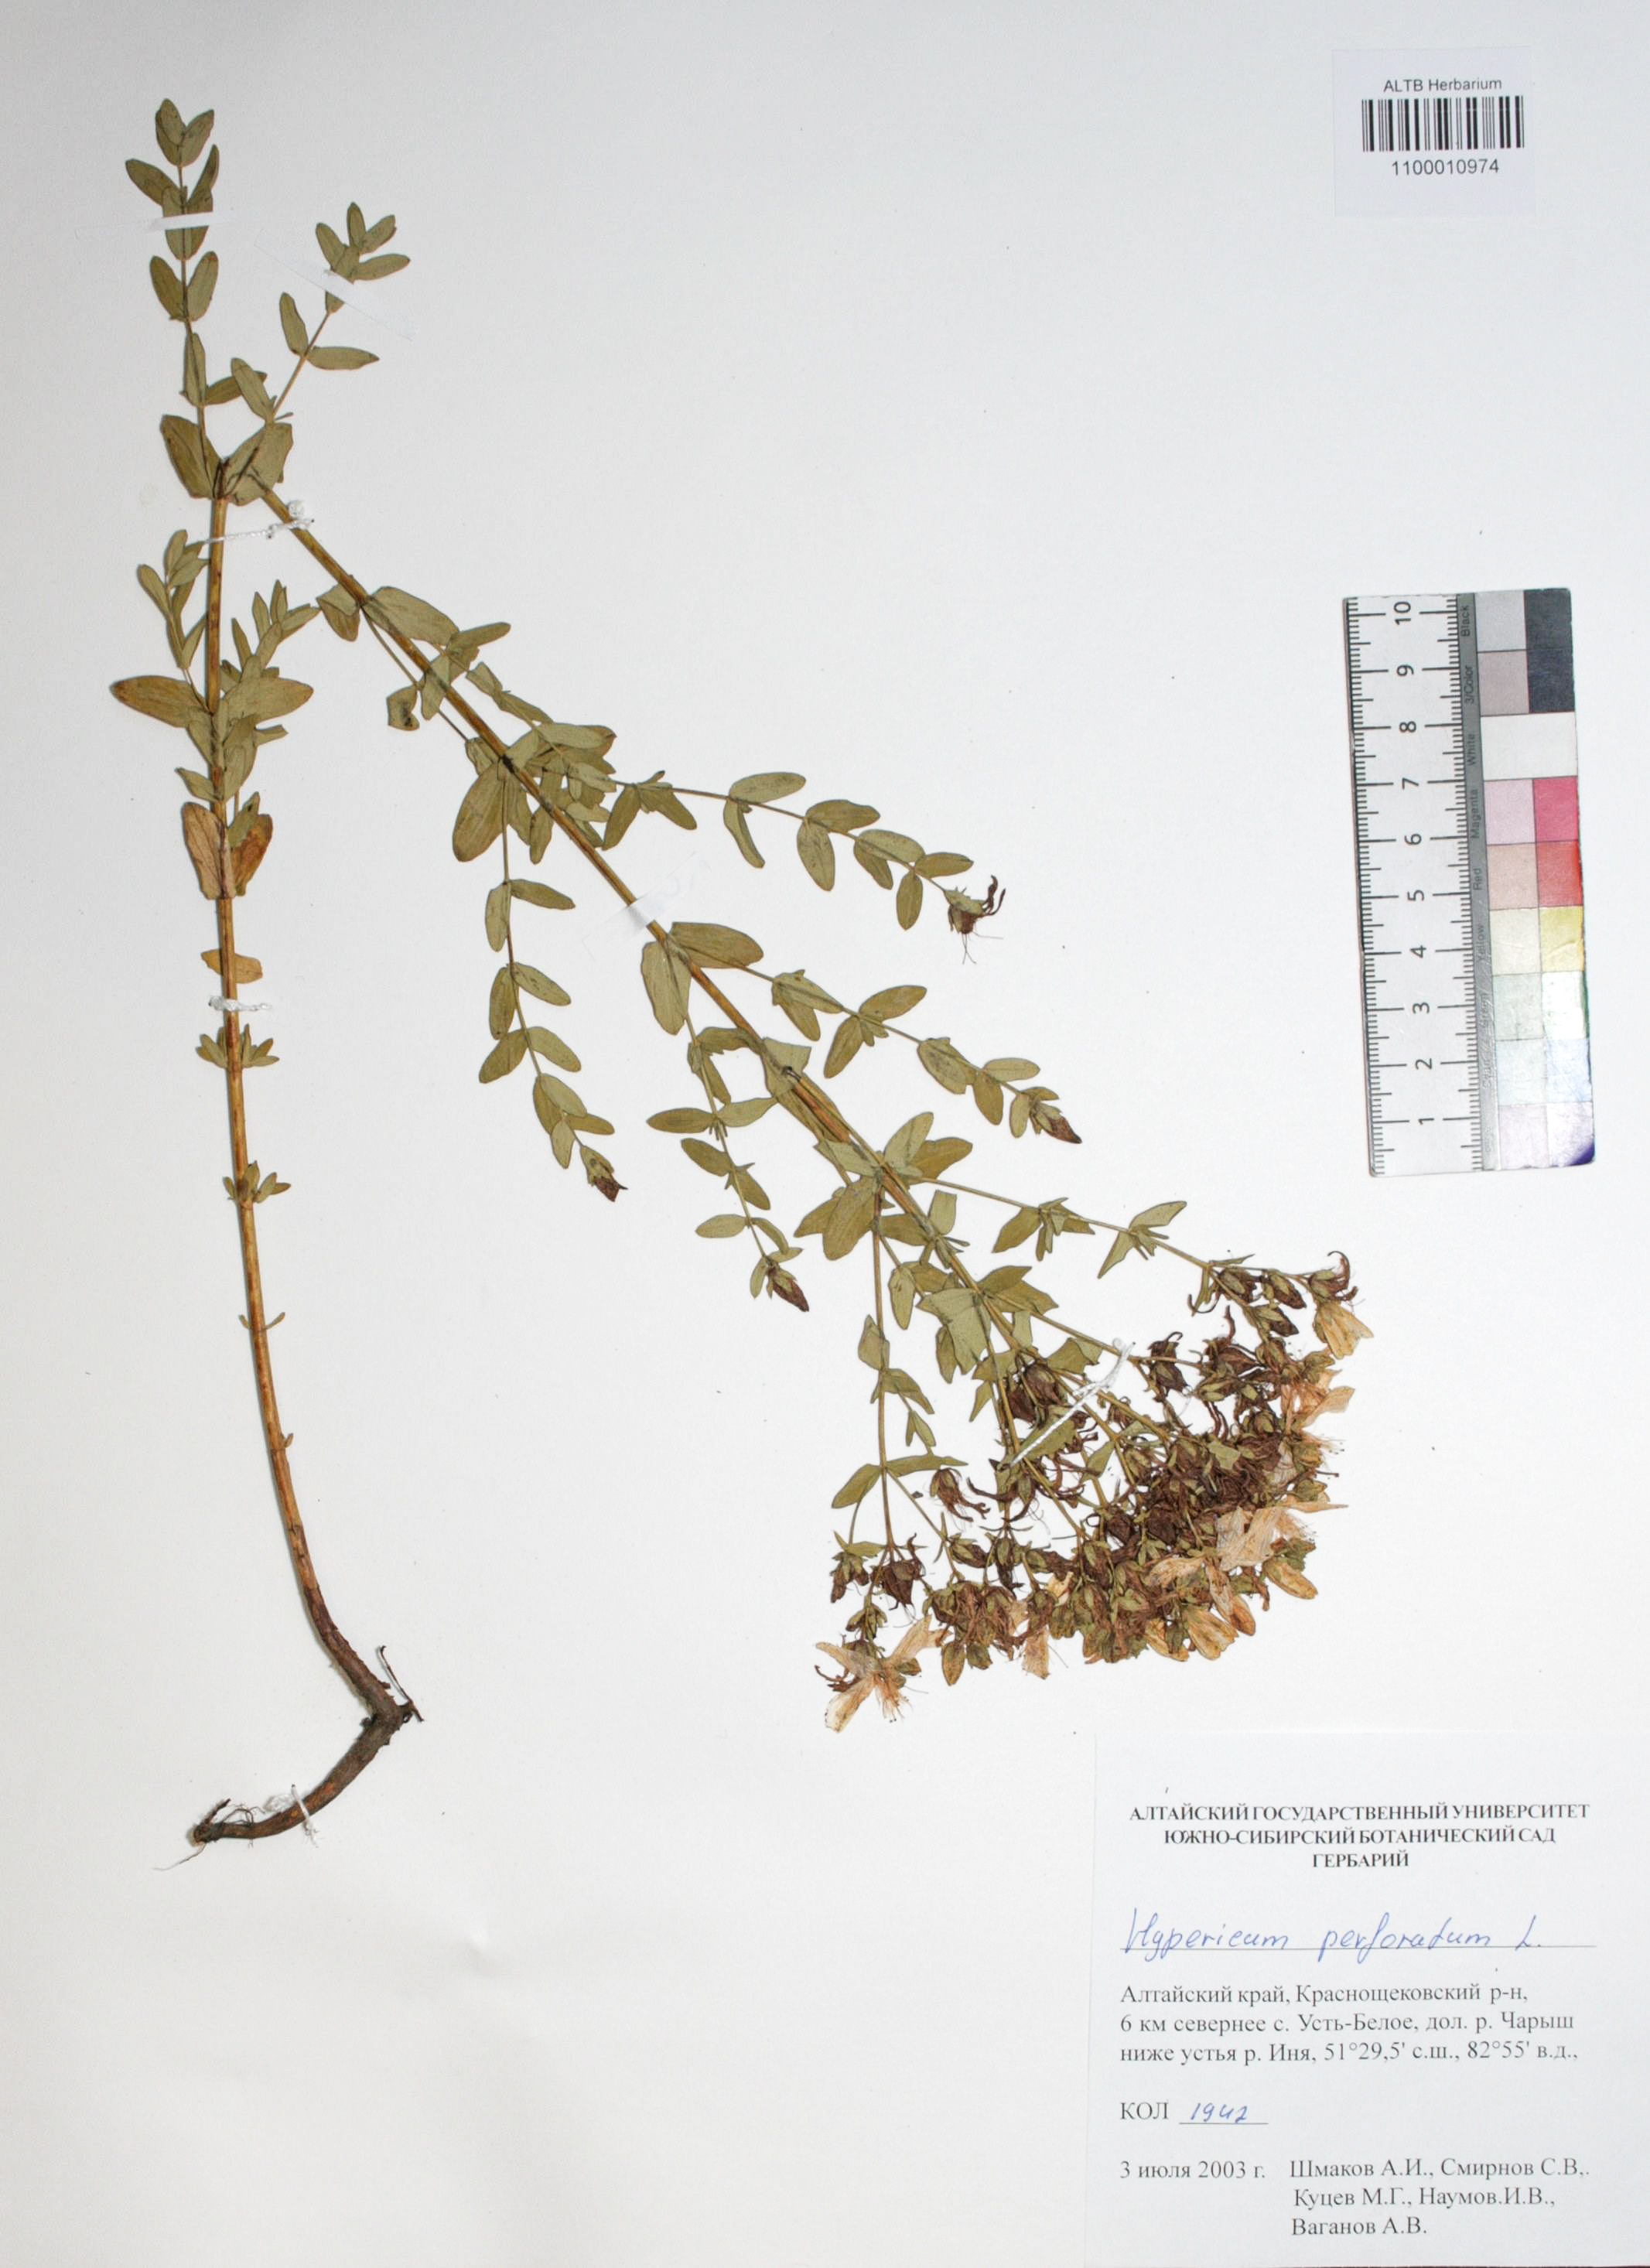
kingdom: Plantae
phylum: Tracheophyta
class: Magnoliopsida
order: Malpighiales
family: Hypericaceae
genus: Hypericum
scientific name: Hypericum perforatum
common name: Common st. johnswort
